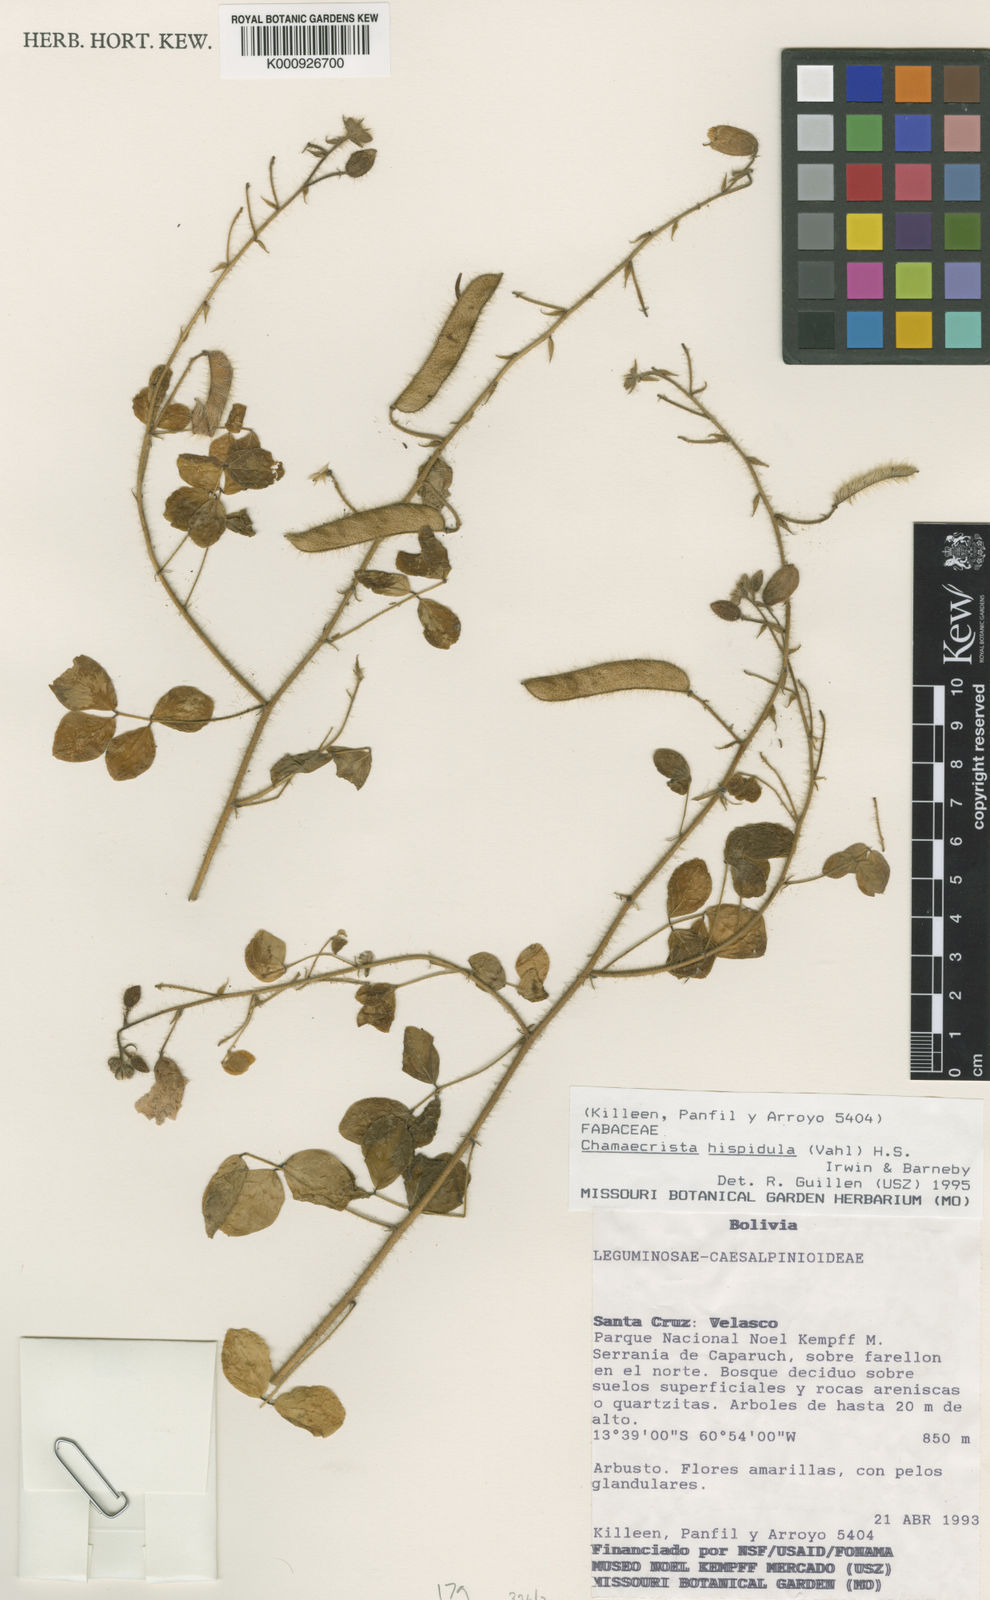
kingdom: Plantae
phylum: Tracheophyta
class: Magnoliopsida
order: Fabales
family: Fabaceae
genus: Chamaecrista
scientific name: Chamaecrista hispidula
